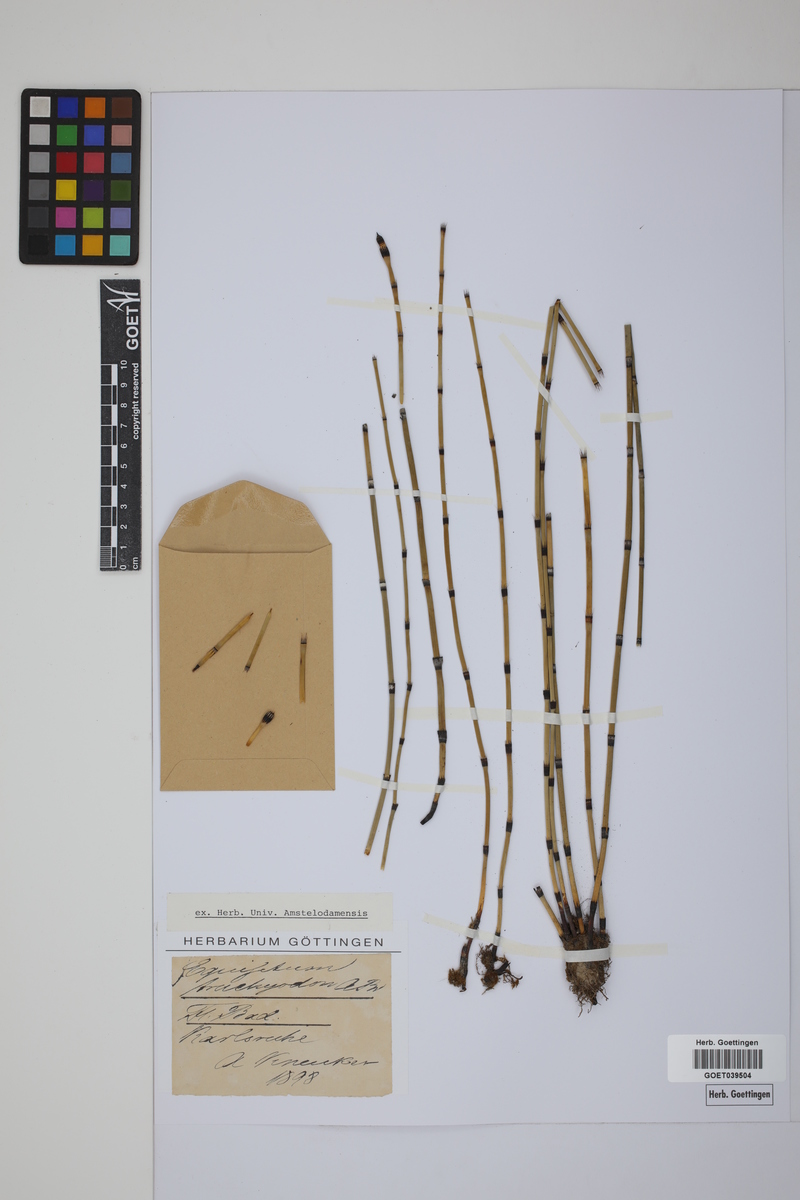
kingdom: Plantae
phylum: Tracheophyta
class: Polypodiopsida
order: Equisetales
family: Equisetaceae
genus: Equisetum
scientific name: Equisetum trachyodon
